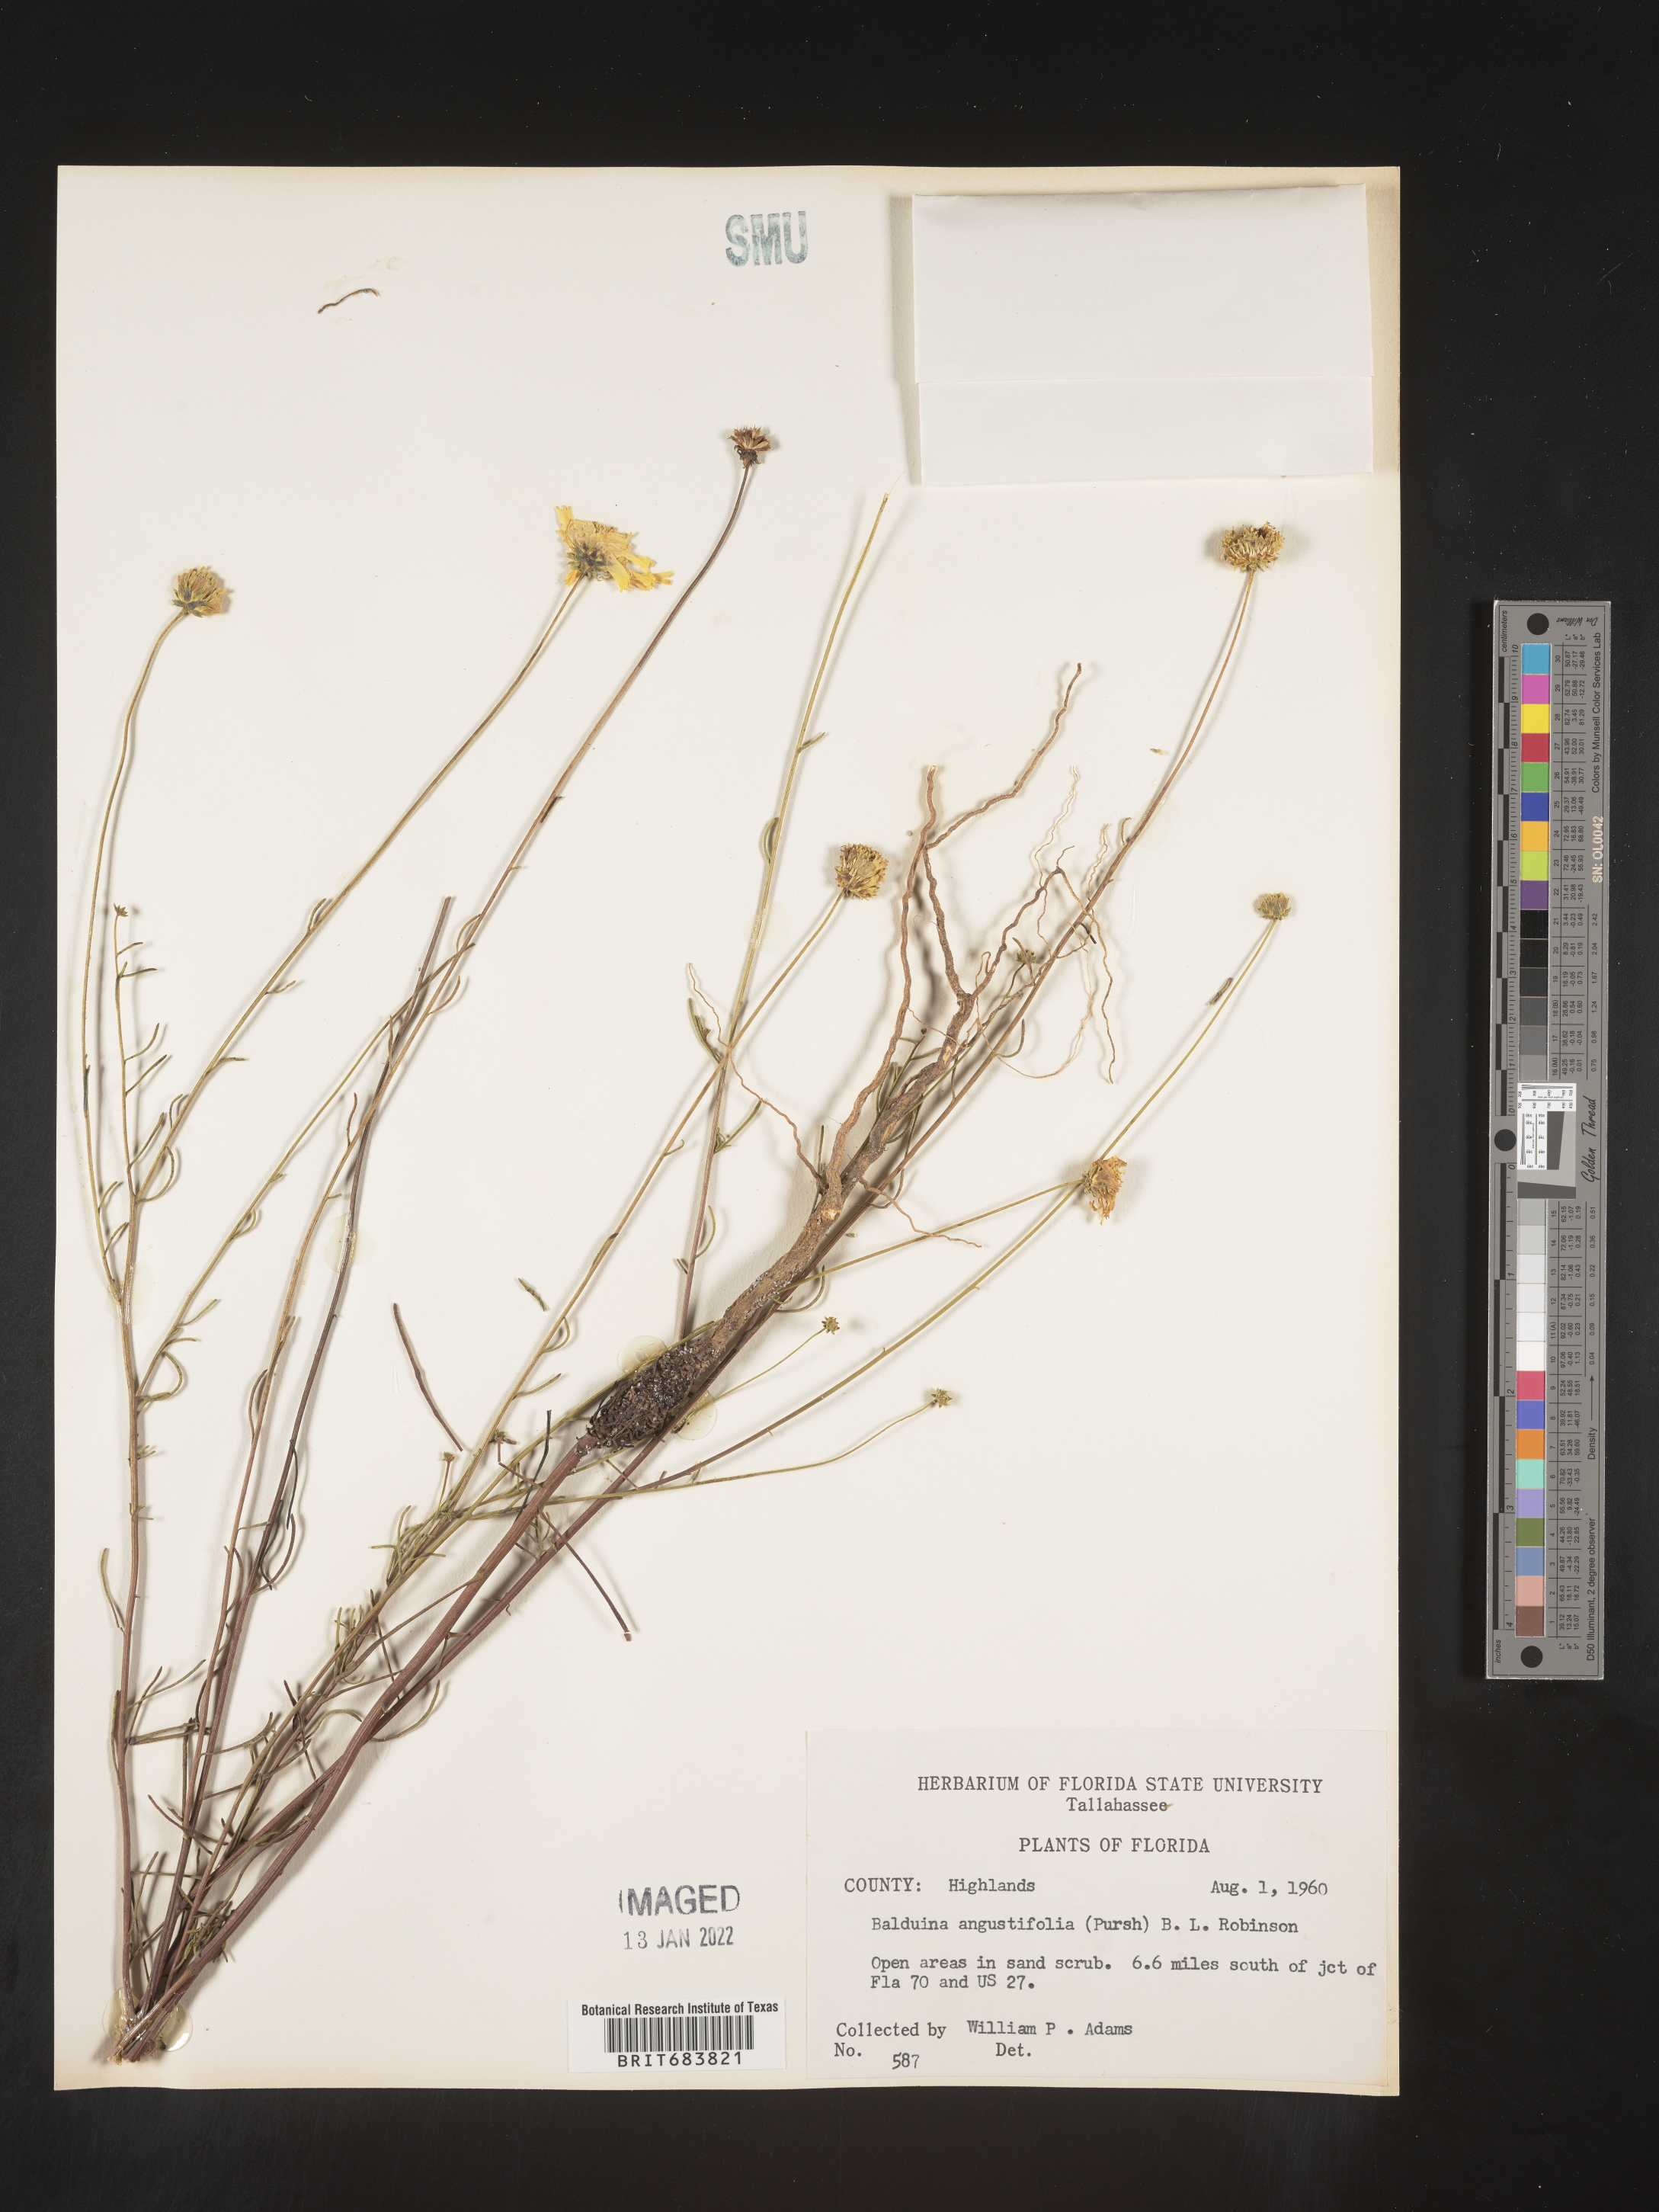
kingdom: Plantae
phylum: Tracheophyta
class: Magnoliopsida
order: Asterales
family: Asteraceae
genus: Balduina
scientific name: Balduina angustifolia
